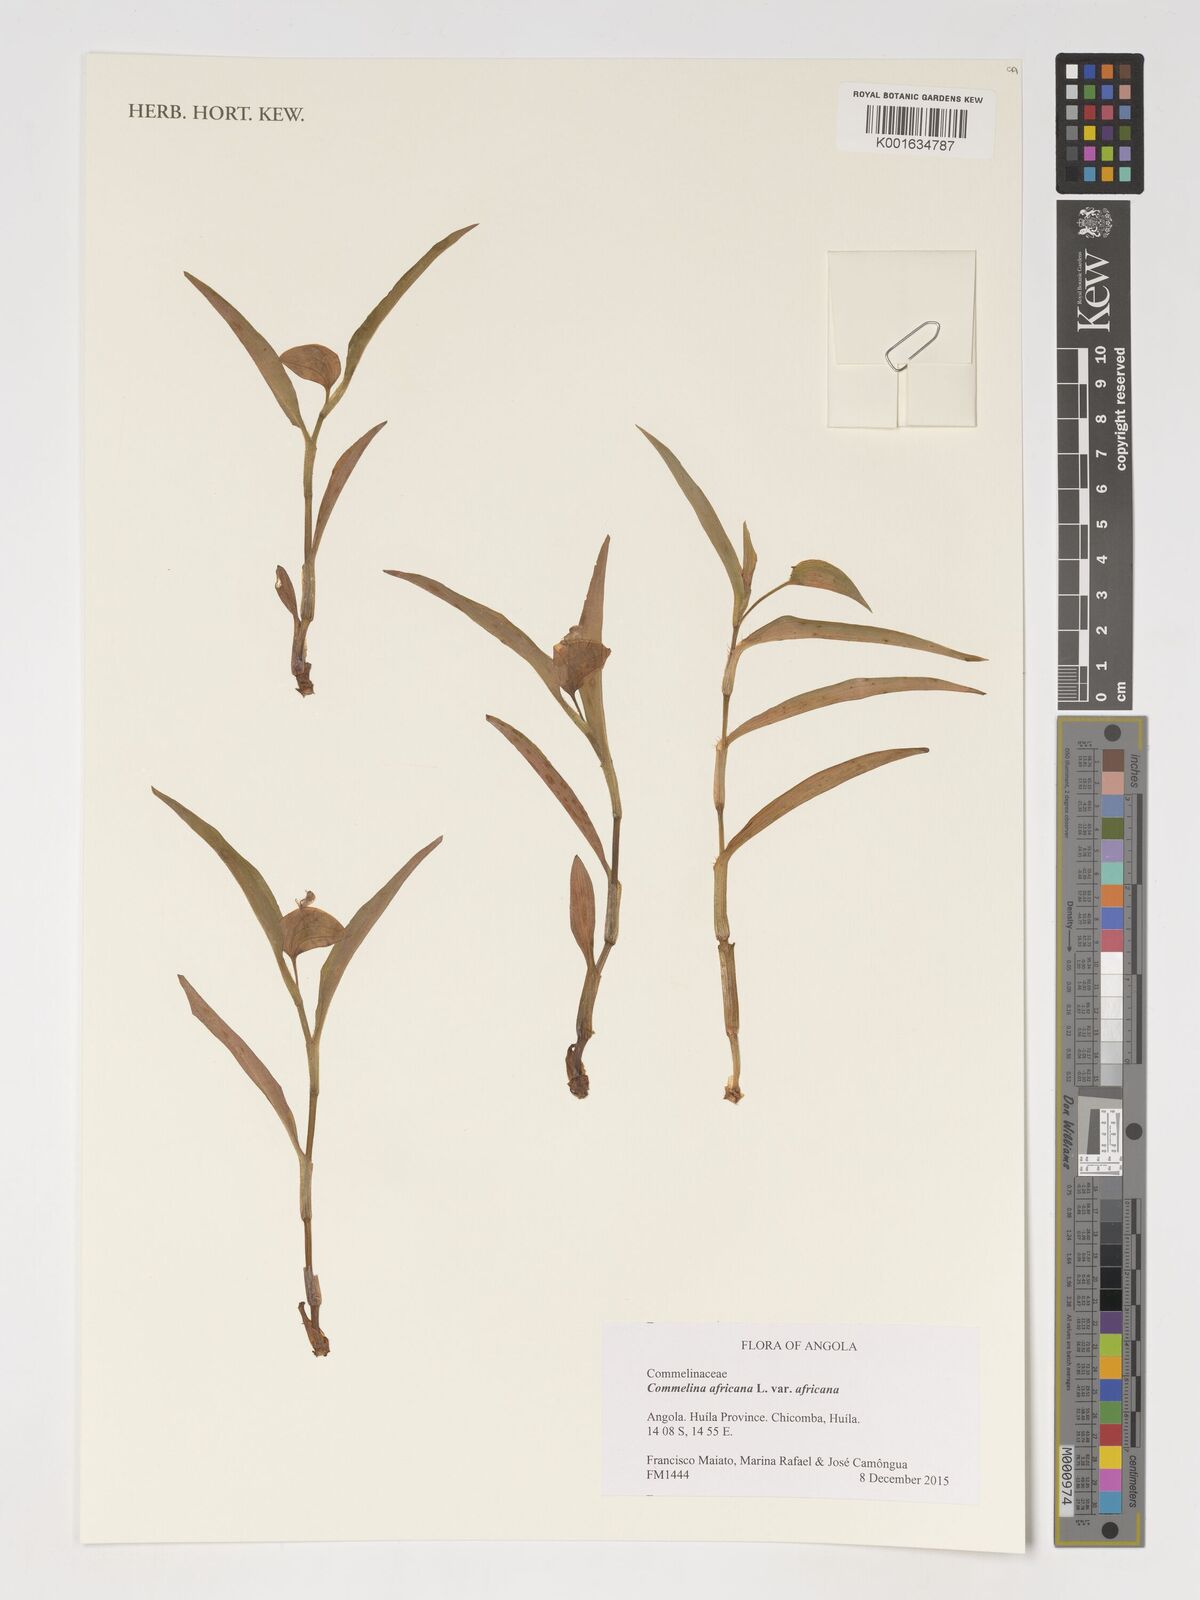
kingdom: Plantae
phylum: Tracheophyta
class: Liliopsida
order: Commelinales
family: Commelinaceae
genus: Commelina
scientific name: Commelina africana
